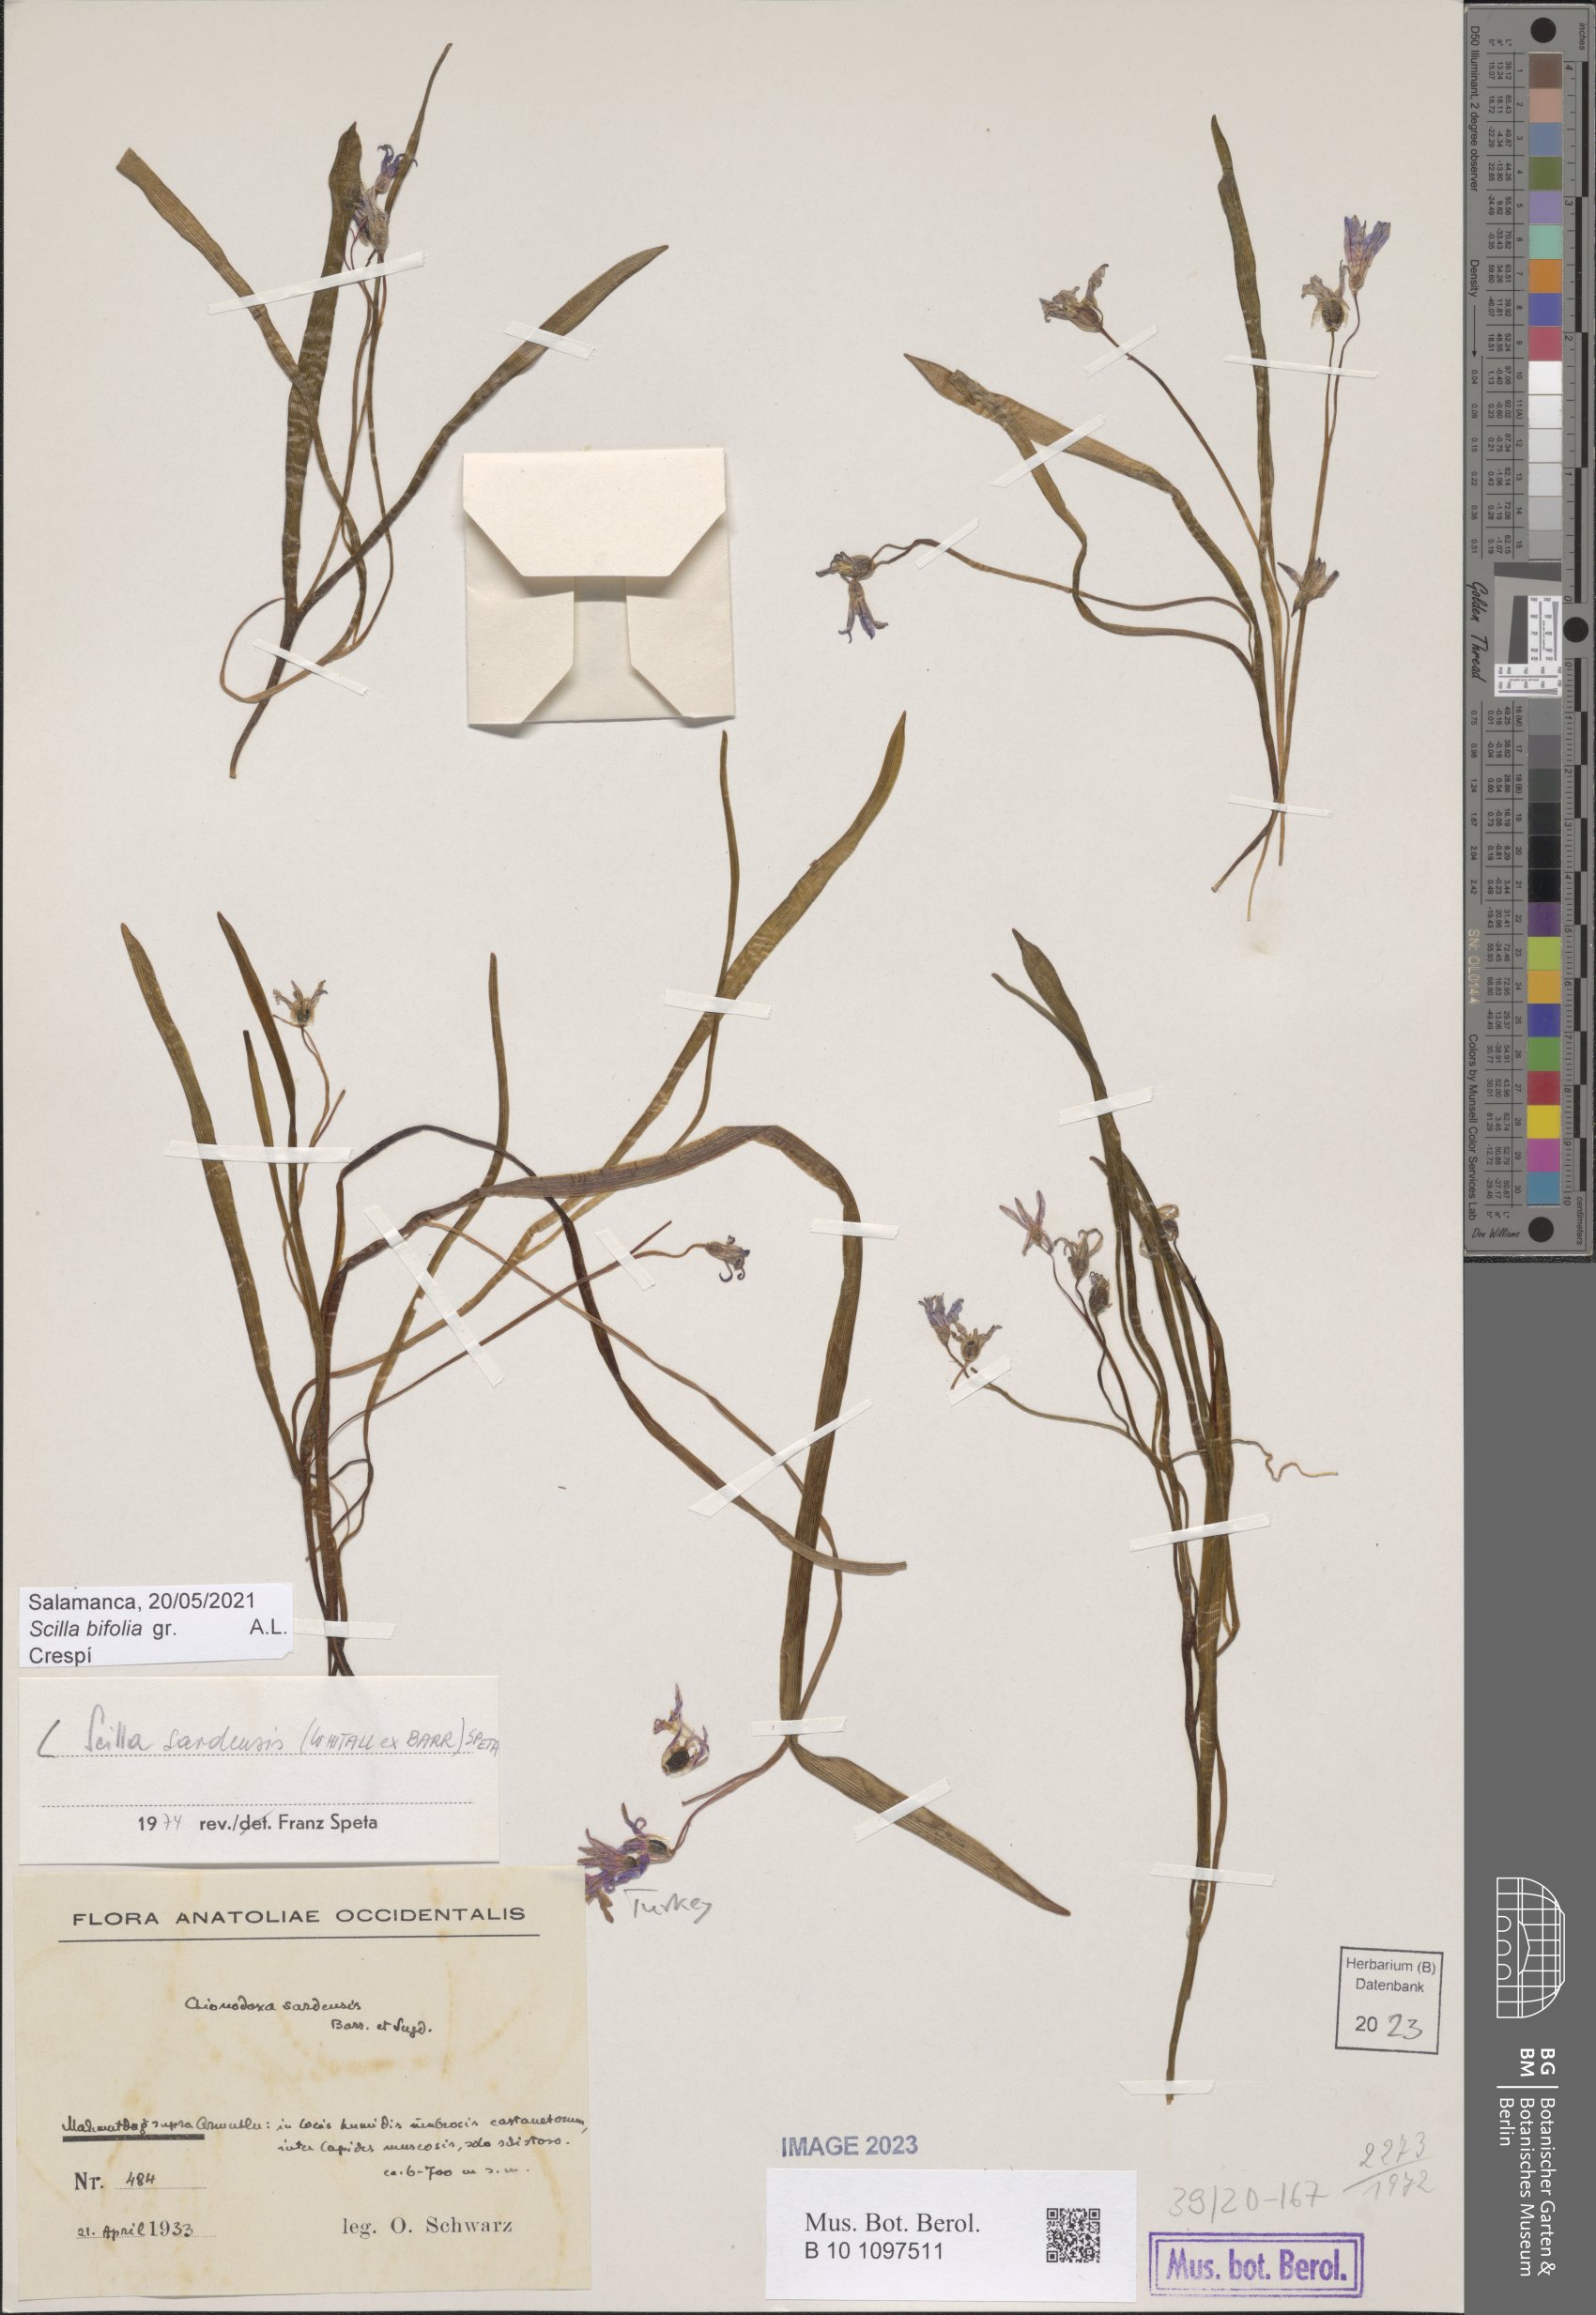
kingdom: Plantae
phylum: Tracheophyta
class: Liliopsida
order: Asparagales
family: Asparagaceae
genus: Scilla
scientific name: Scilla sardensis
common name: Lesser glory-of-the-snow
